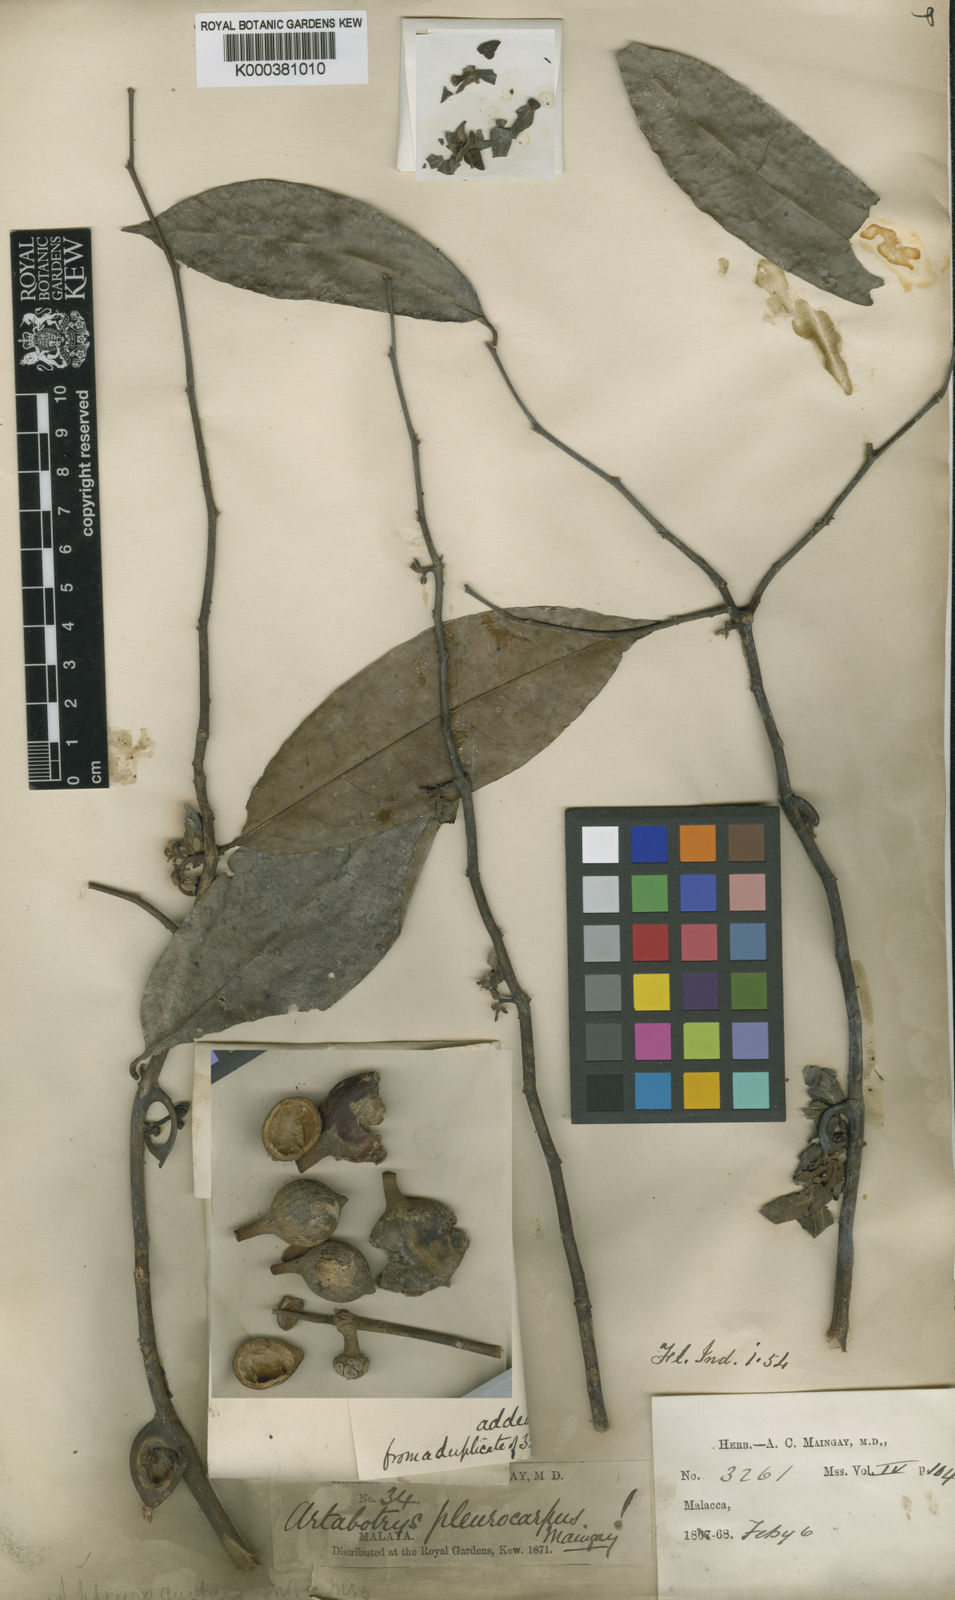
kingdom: Plantae
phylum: Tracheophyta
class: Magnoliopsida
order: Magnoliales
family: Annonaceae
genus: Artabotrys
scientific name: Artabotrys pleurocarpus
